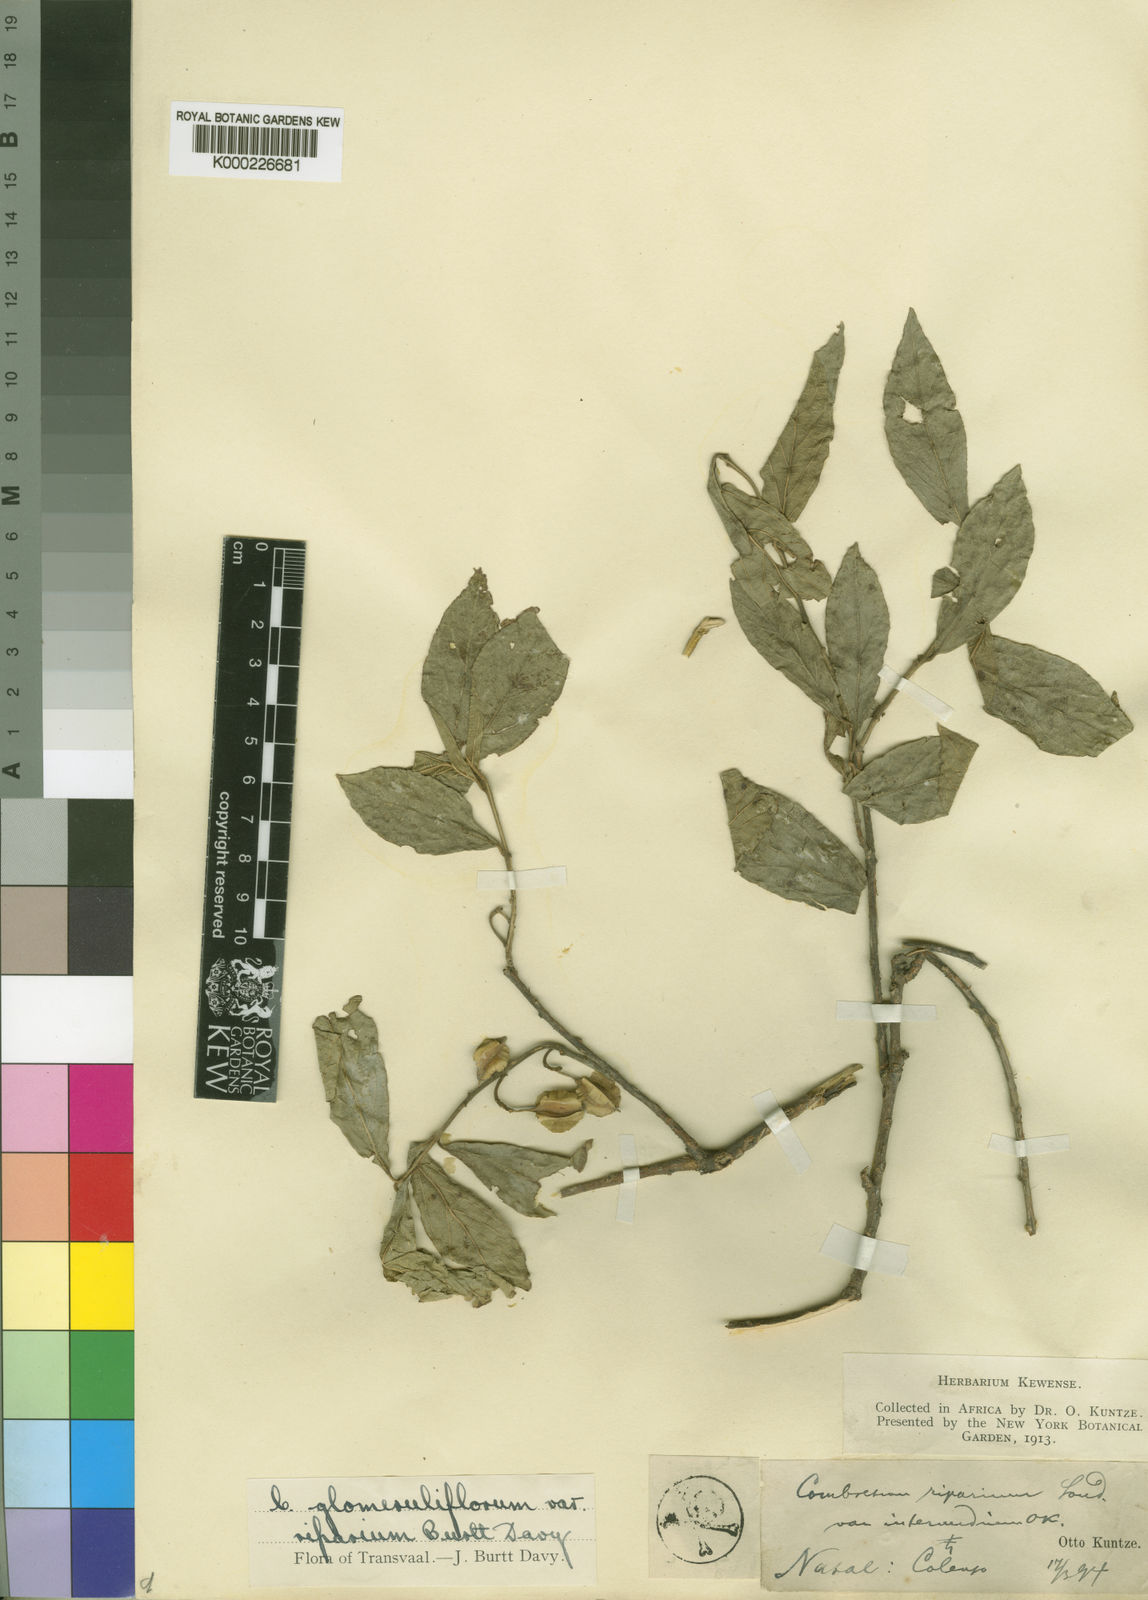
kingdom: Plantae
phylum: Tracheophyta
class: Magnoliopsida
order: Myrtales
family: Combretaceae
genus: Combretum
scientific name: Combretum erythrophyllum
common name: Bush-willow
